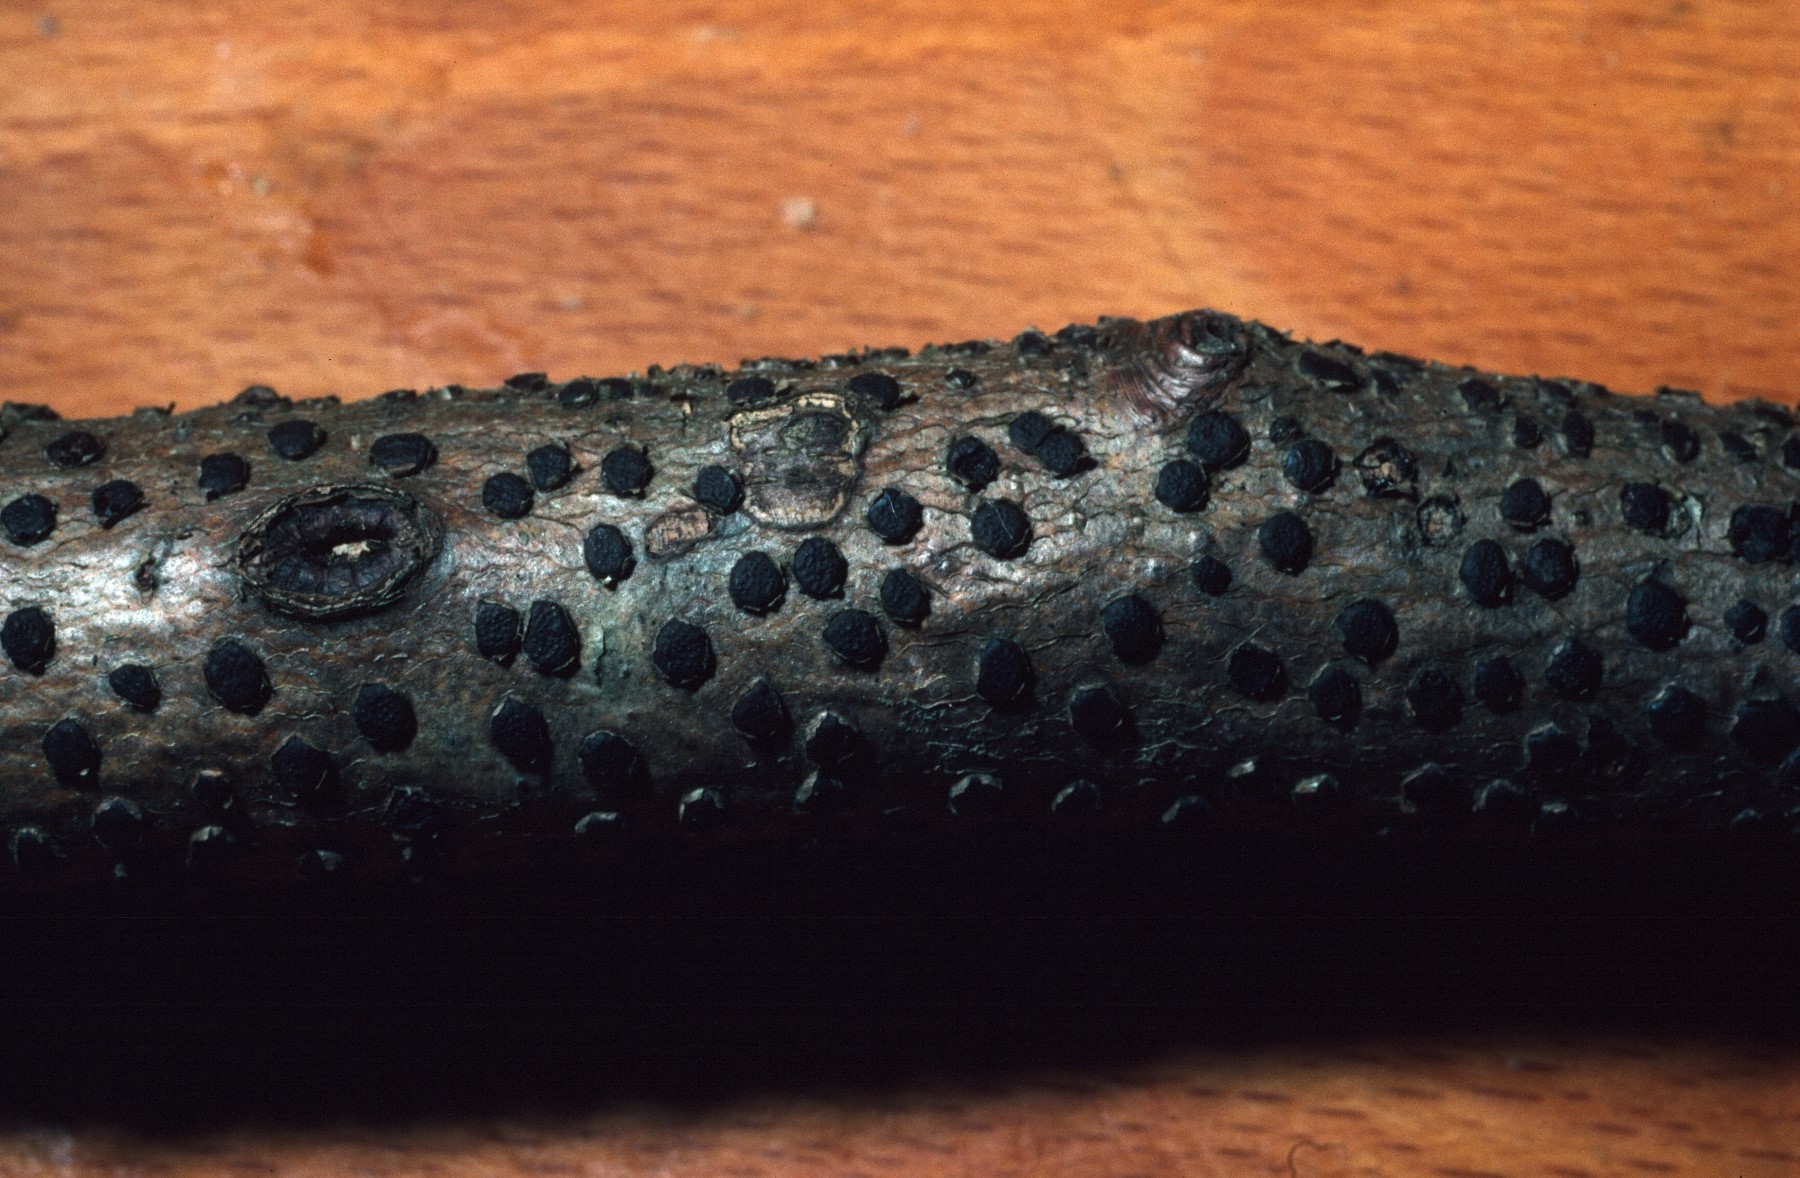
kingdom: Fungi
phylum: Ascomycota
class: Sordariomycetes
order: Xylariales
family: Diatrypaceae
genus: Diatrype
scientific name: Diatrype disciformis
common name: kant-kulskorpe
